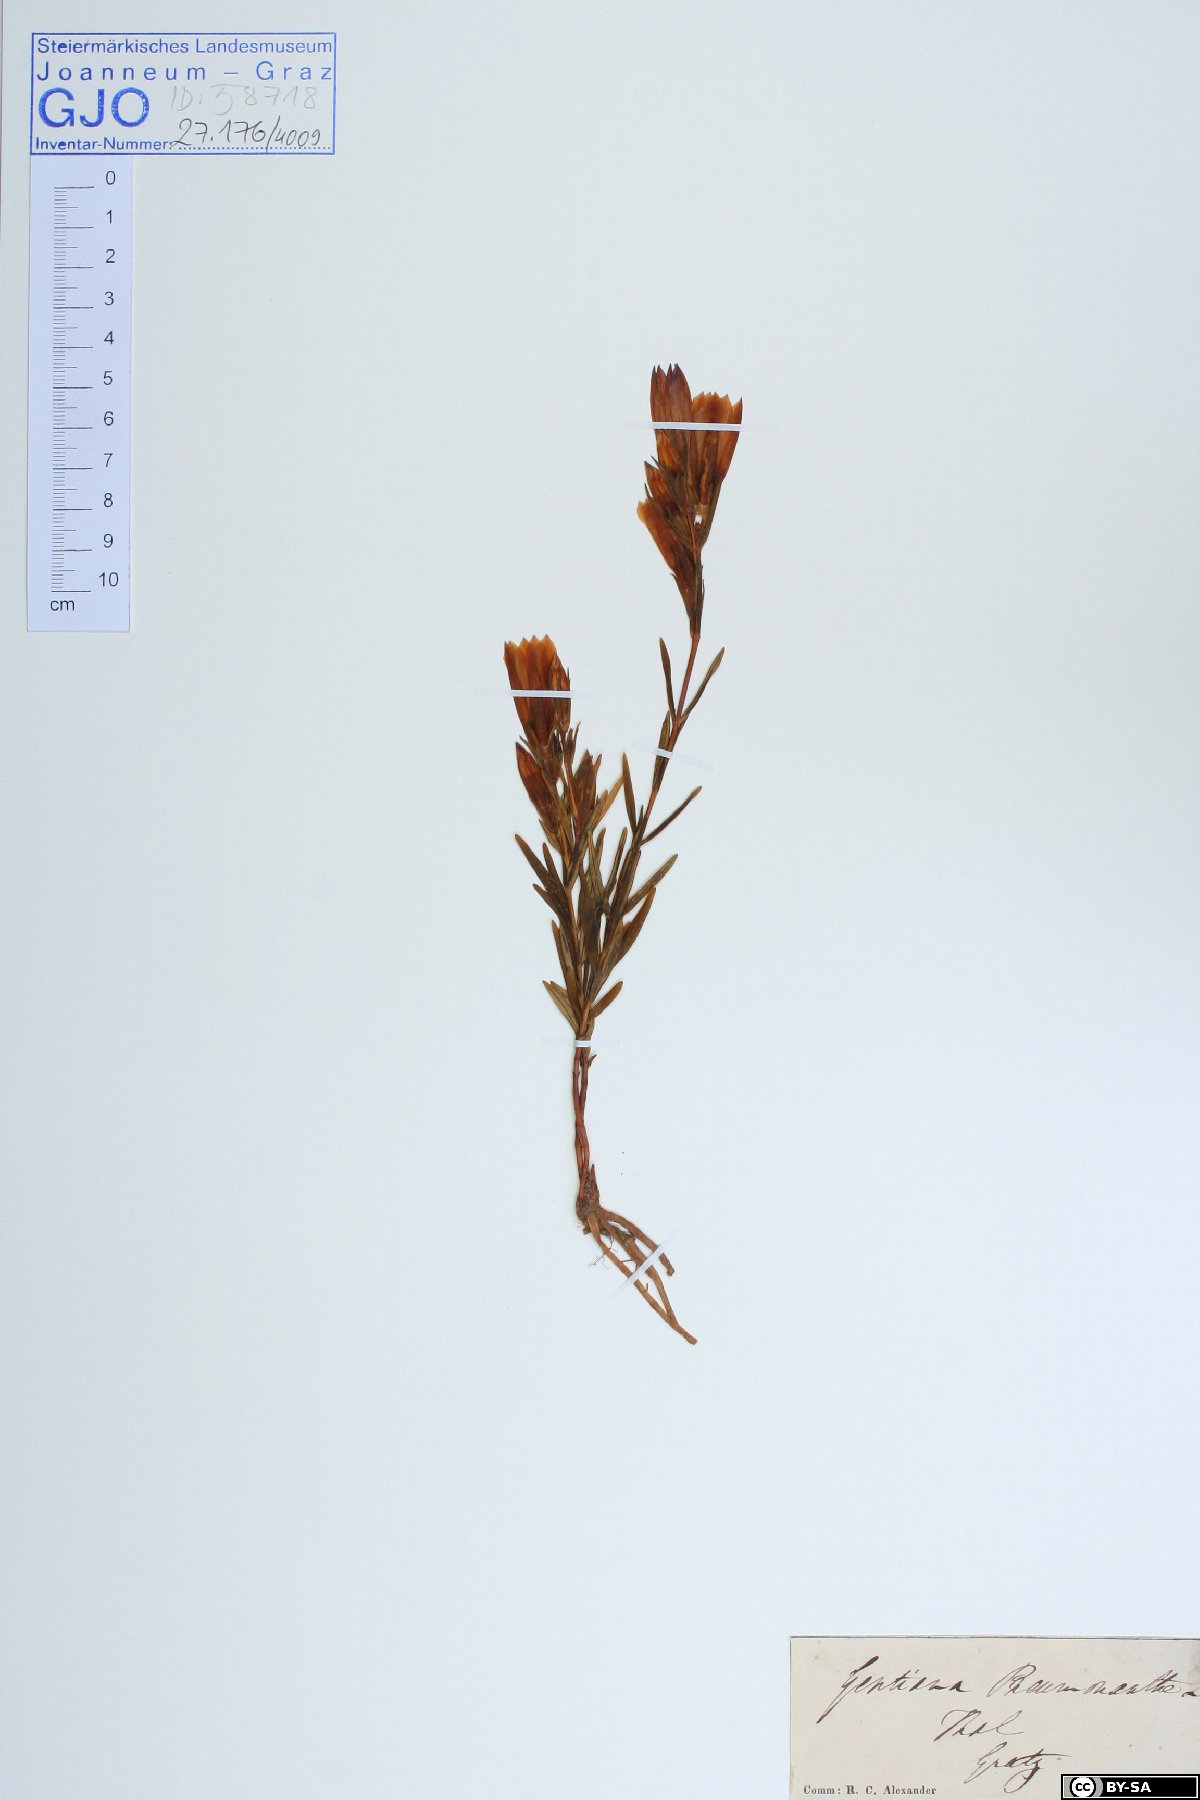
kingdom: Plantae
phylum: Tracheophyta
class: Magnoliopsida
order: Gentianales
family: Gentianaceae
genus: Gentiana
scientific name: Gentiana pneumonanthe
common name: Marsh gentian
